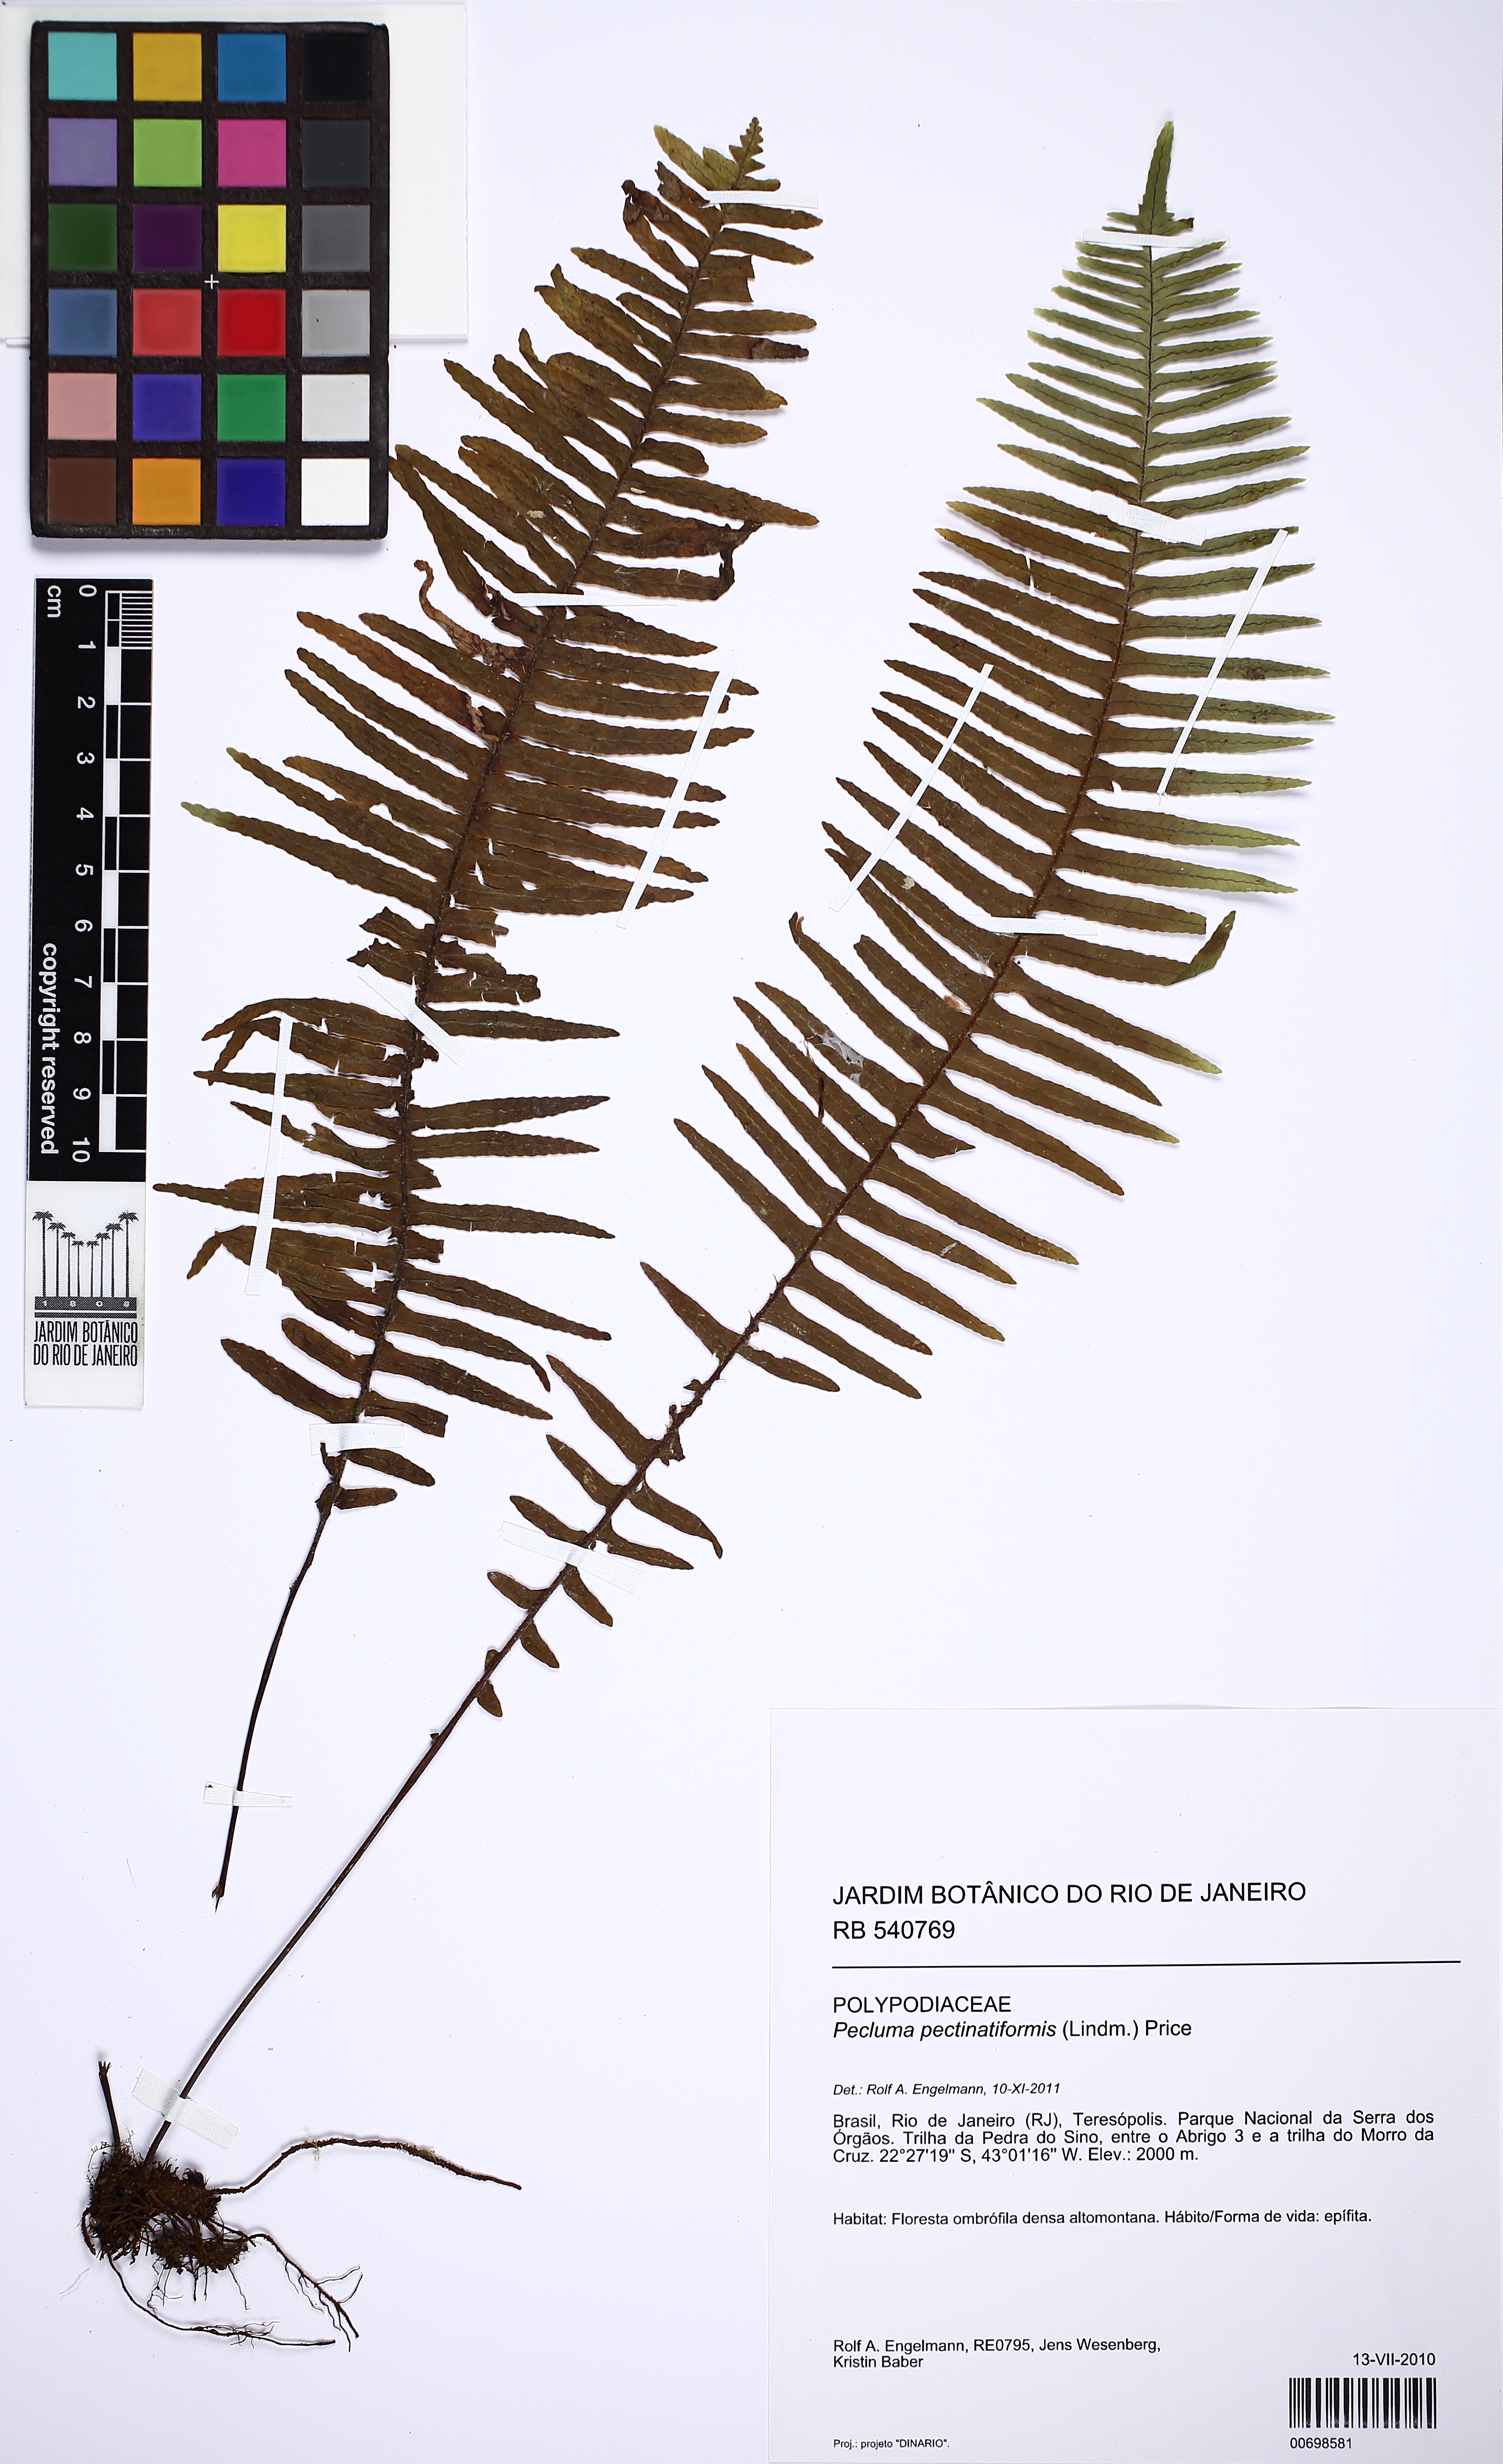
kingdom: Plantae
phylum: Tracheophyta
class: Polypodiopsida
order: Polypodiales
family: Polypodiaceae
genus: Pecluma
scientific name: Pecluma pectinatiformis
